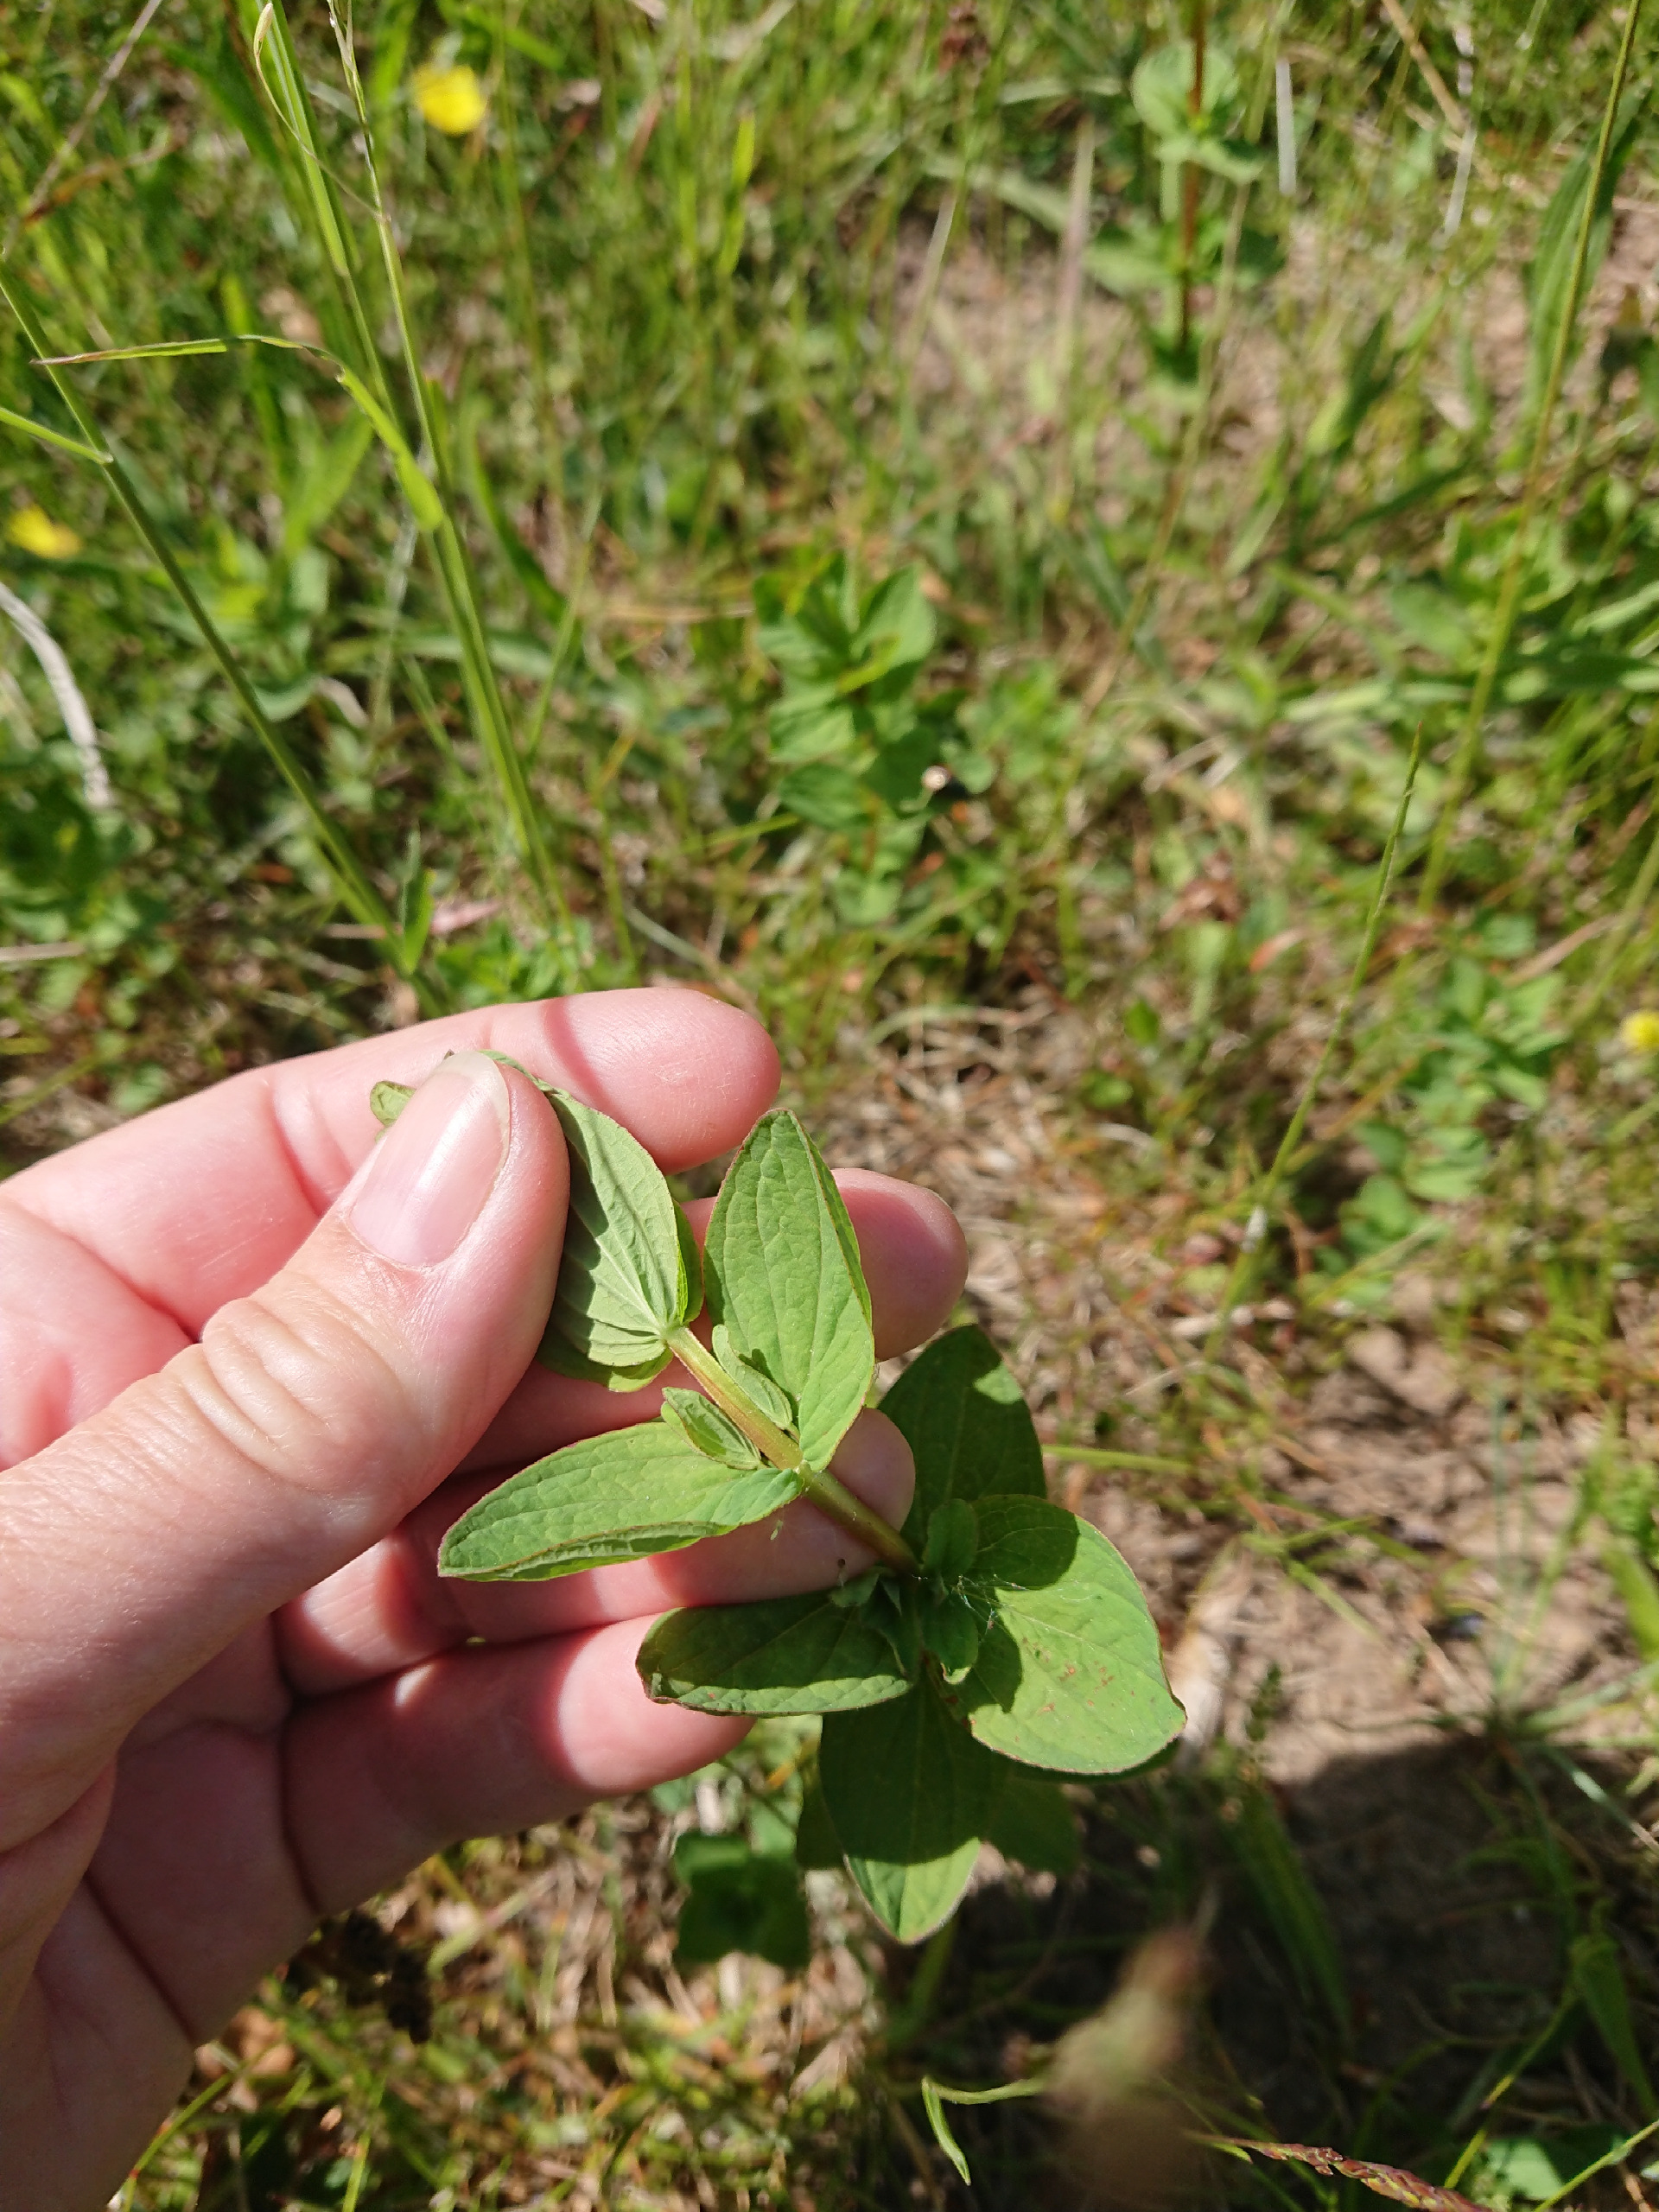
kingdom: Plantae
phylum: Tracheophyta
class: Magnoliopsida
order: Malpighiales
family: Hypericaceae
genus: Hypericum
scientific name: Hypericum maculatum
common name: Kantet perikon
